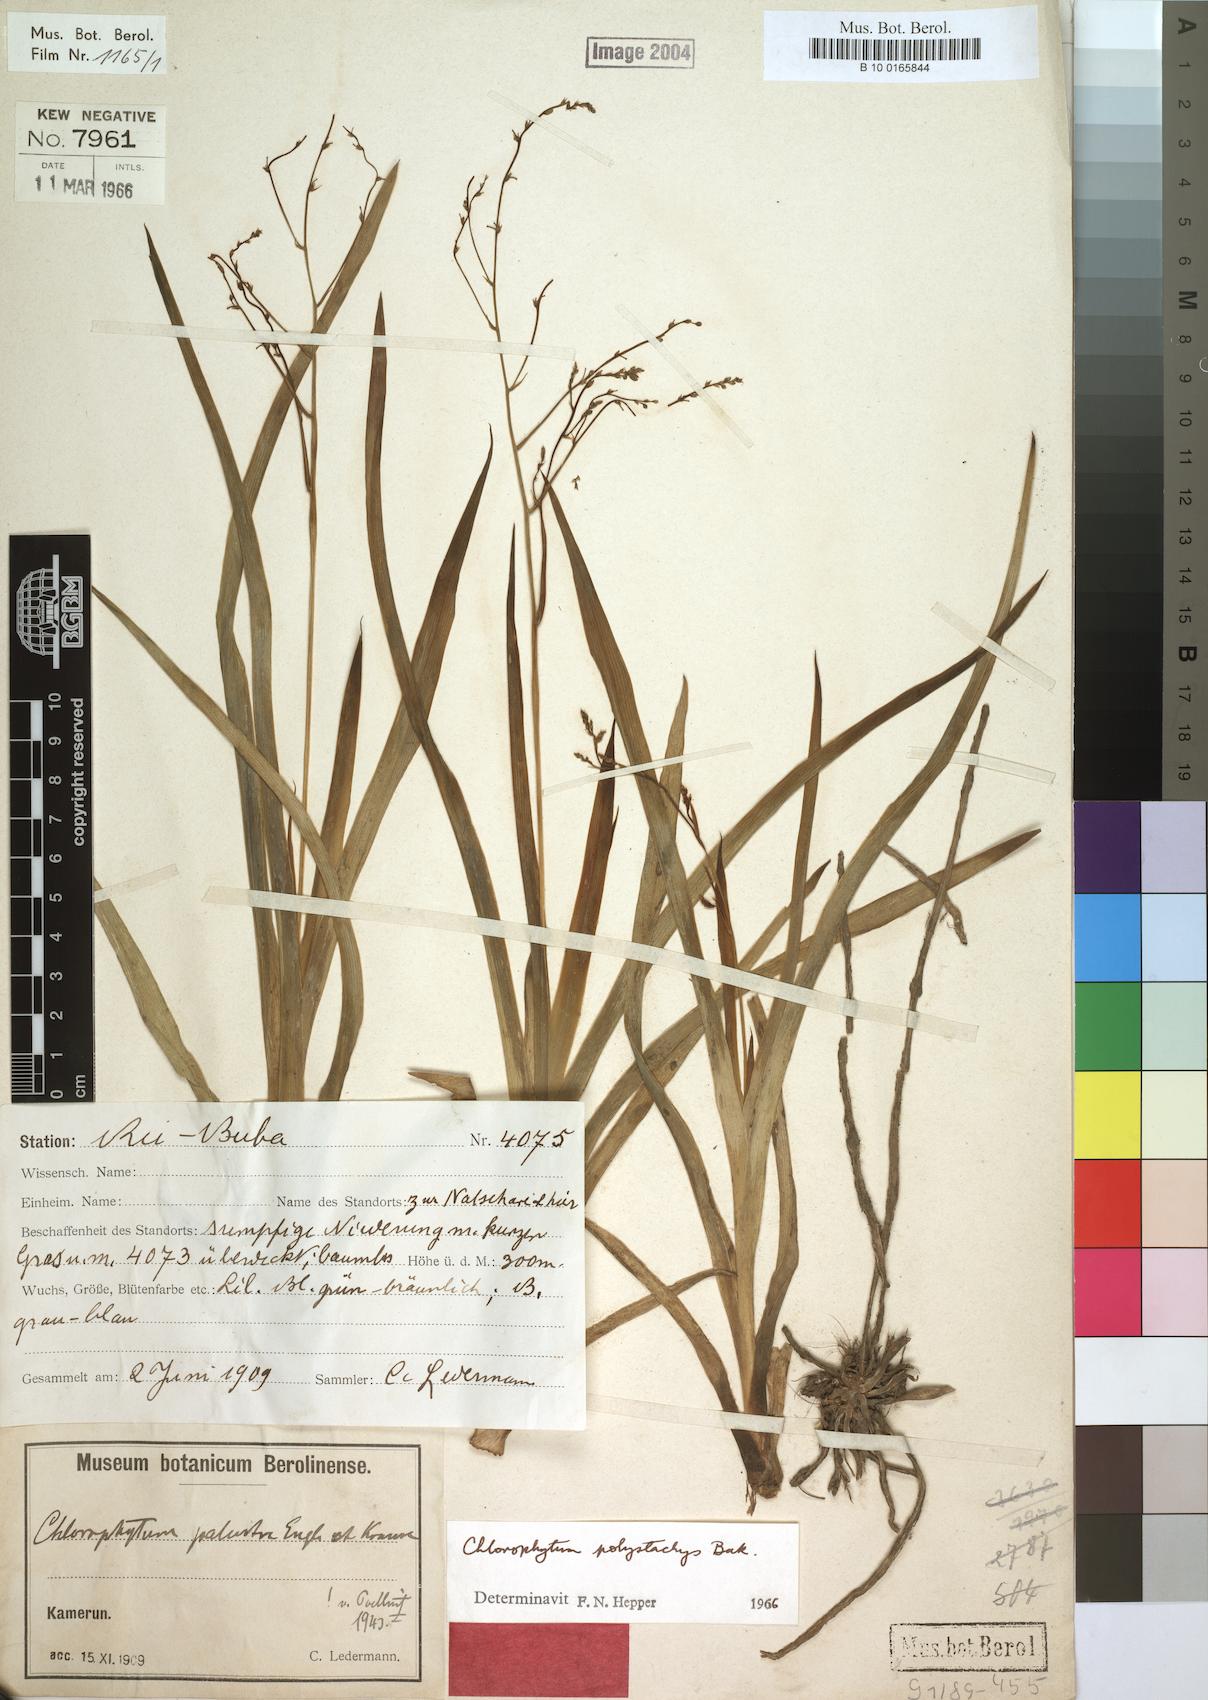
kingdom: Plantae
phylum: Tracheophyta
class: Liliopsida
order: Asparagales
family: Asparagaceae
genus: Chlorophytum
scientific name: Chlorophytum polystachys
